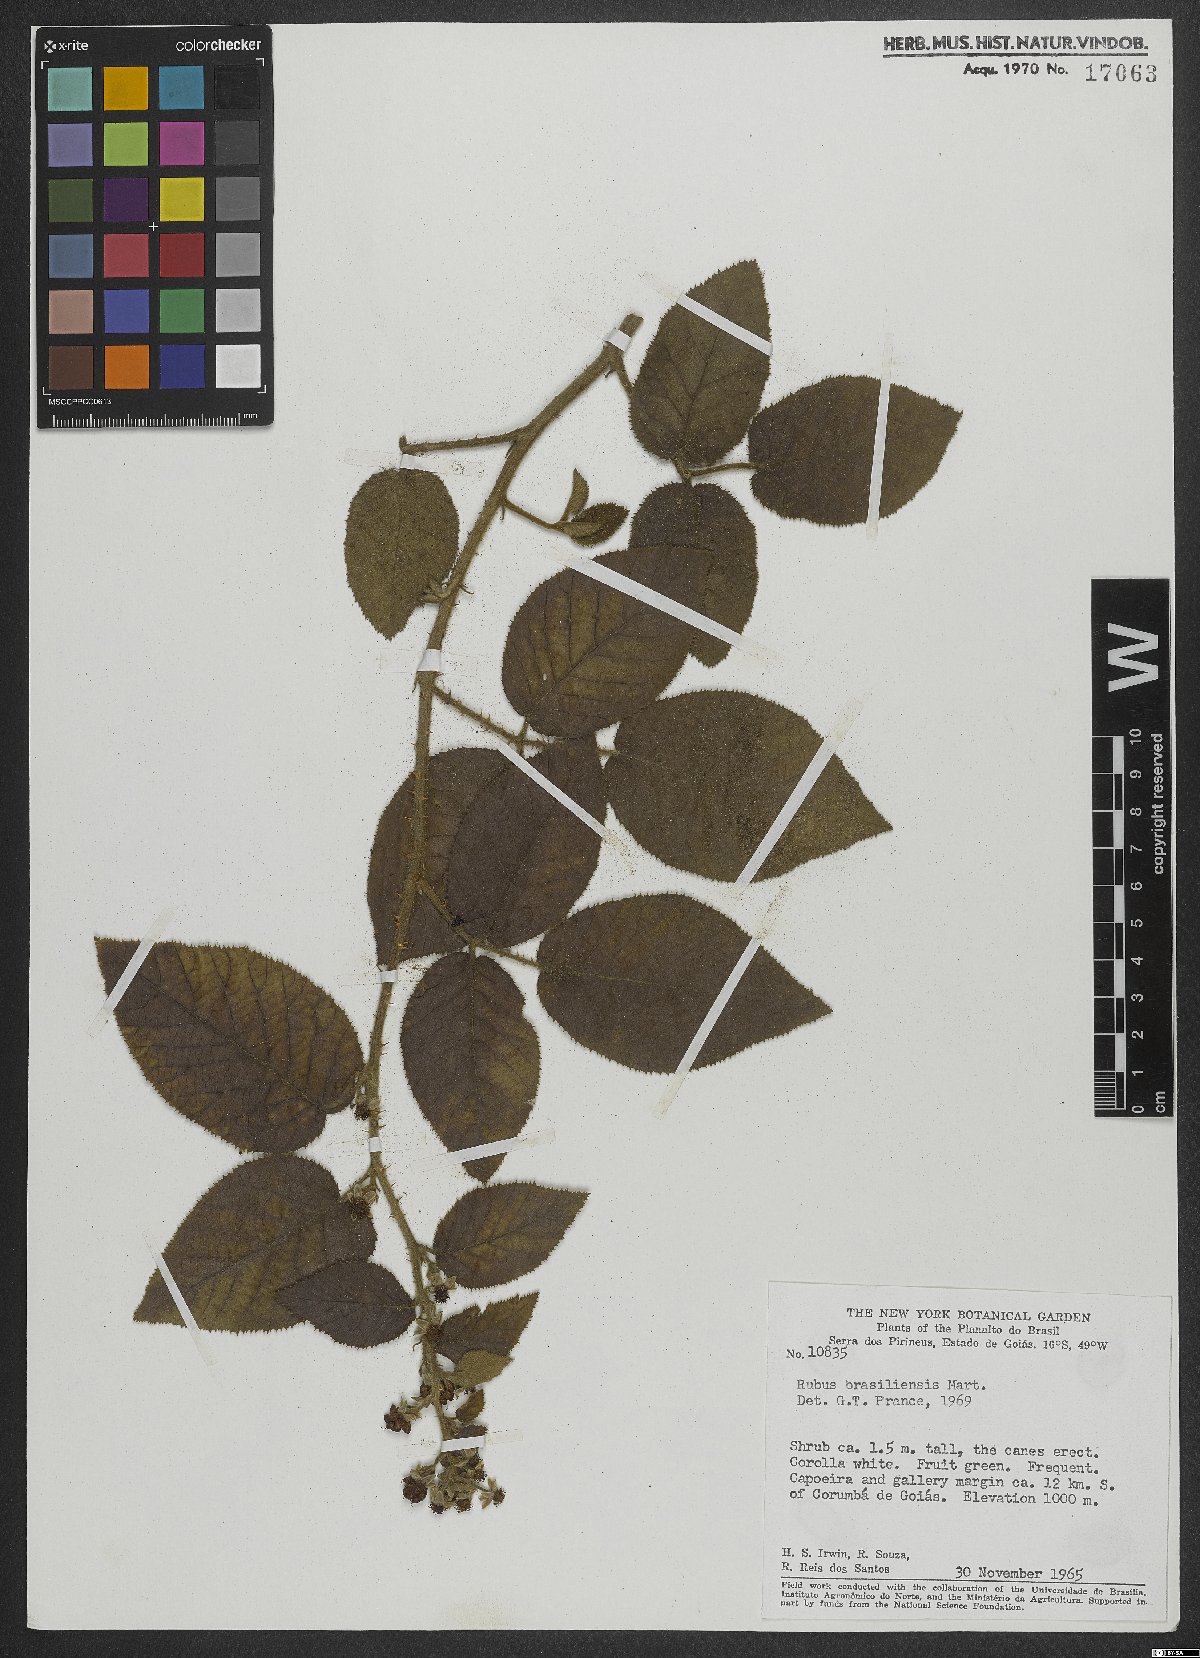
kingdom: Plantae
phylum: Tracheophyta
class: Magnoliopsida
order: Rosales
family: Rosaceae
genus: Rubus
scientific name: Rubus brasiliensis
